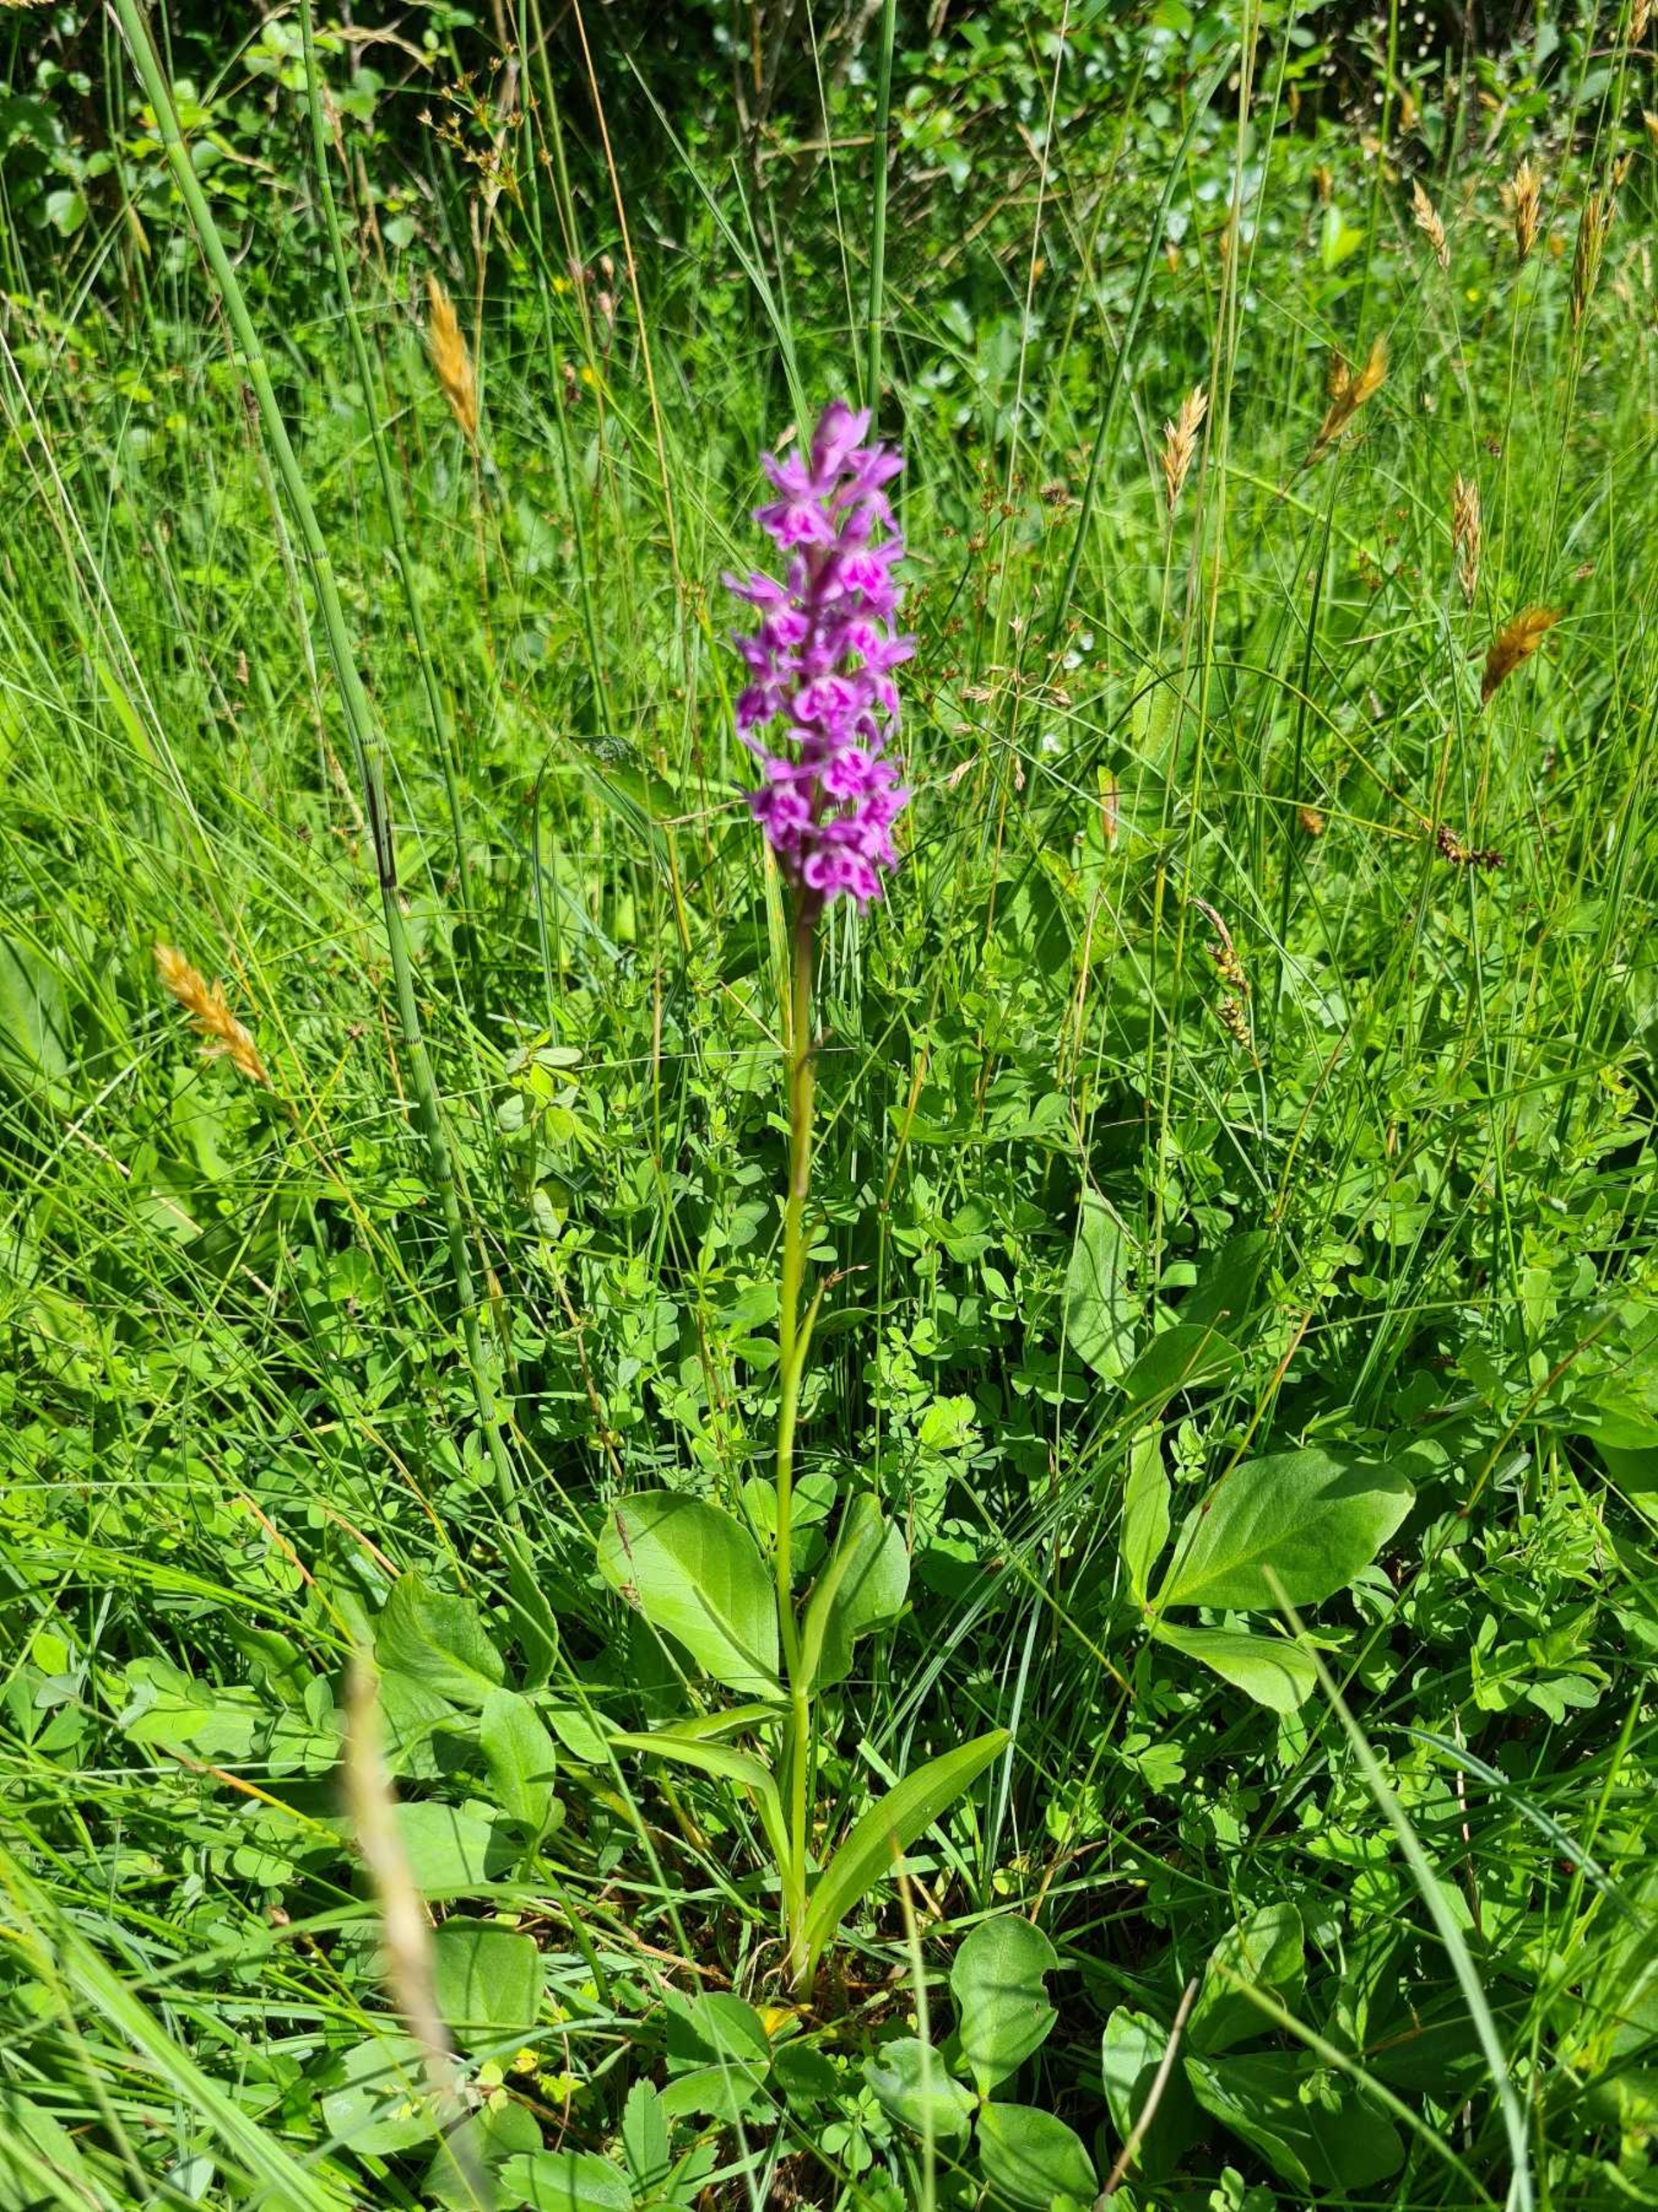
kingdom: Plantae
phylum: Tracheophyta
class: Liliopsida
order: Asparagales
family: Orchidaceae
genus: Dactylorhiza
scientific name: Dactylorhiza maculata
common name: Skov-gøgeurt
